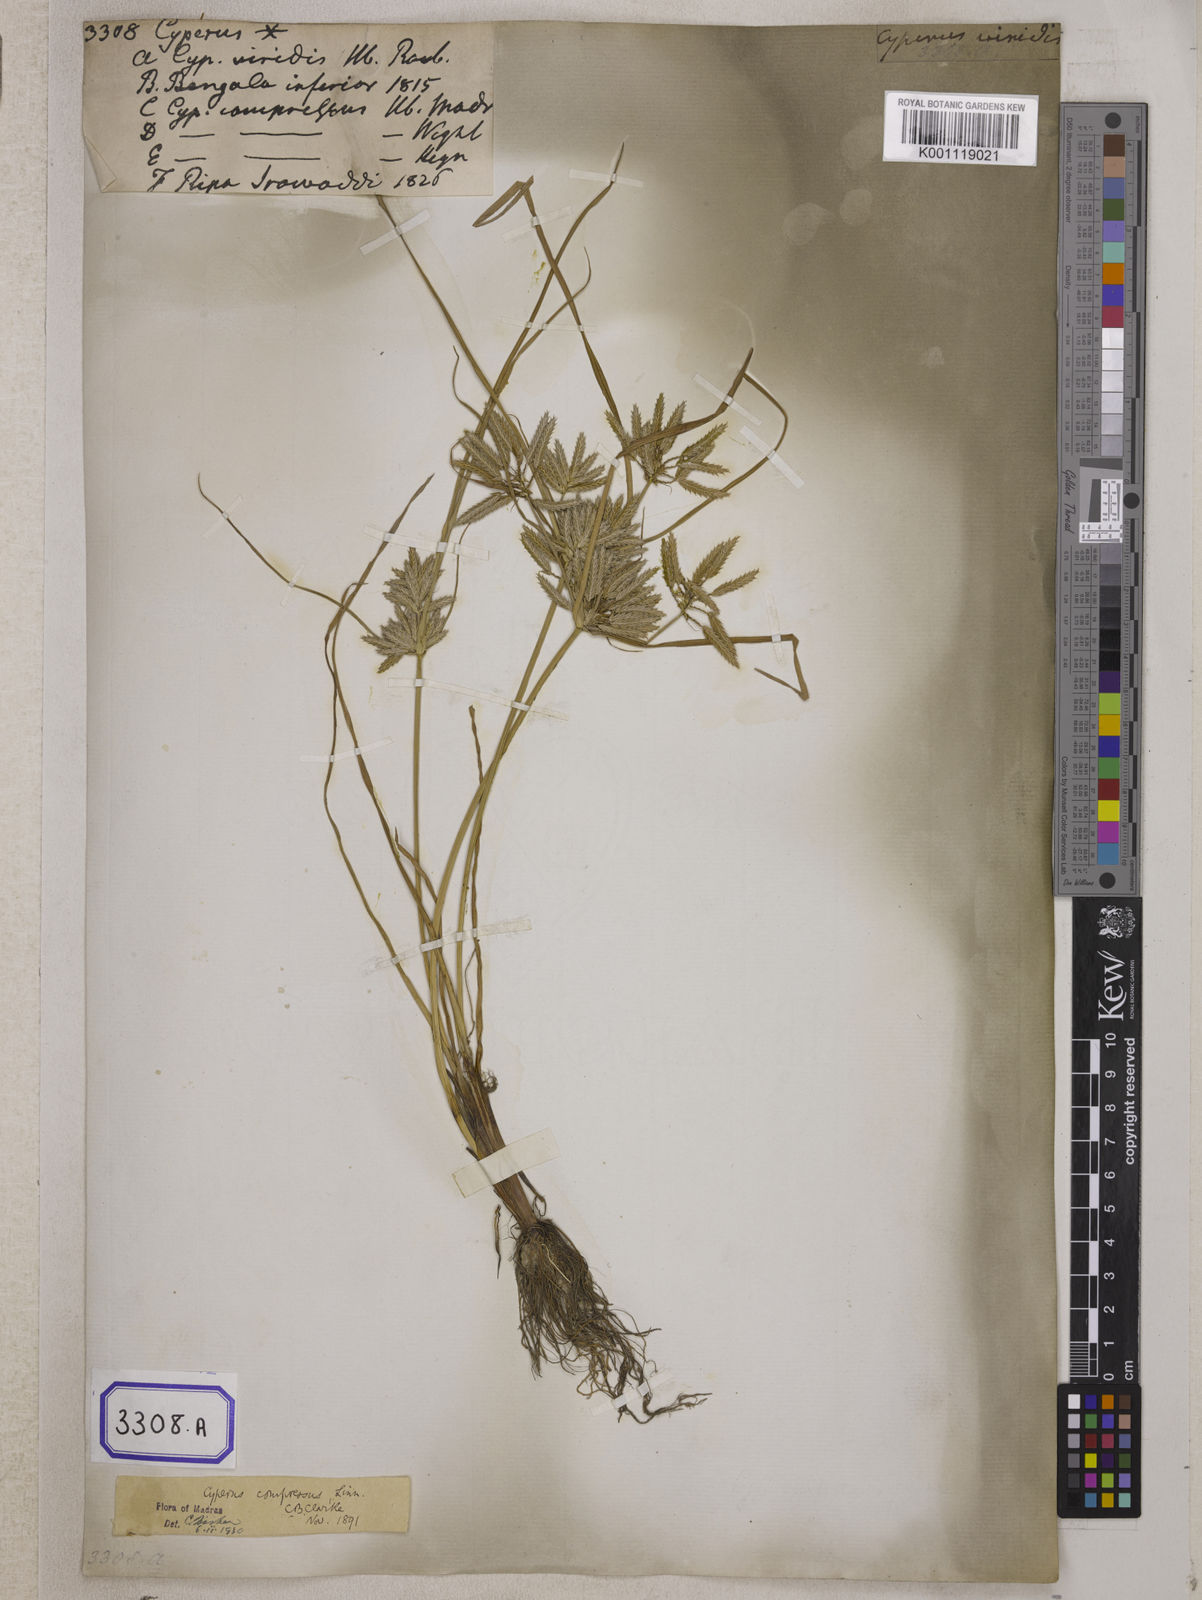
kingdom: Plantae
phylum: Tracheophyta
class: Liliopsida
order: Poales
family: Cyperaceae
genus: Cyperus
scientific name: Cyperus
